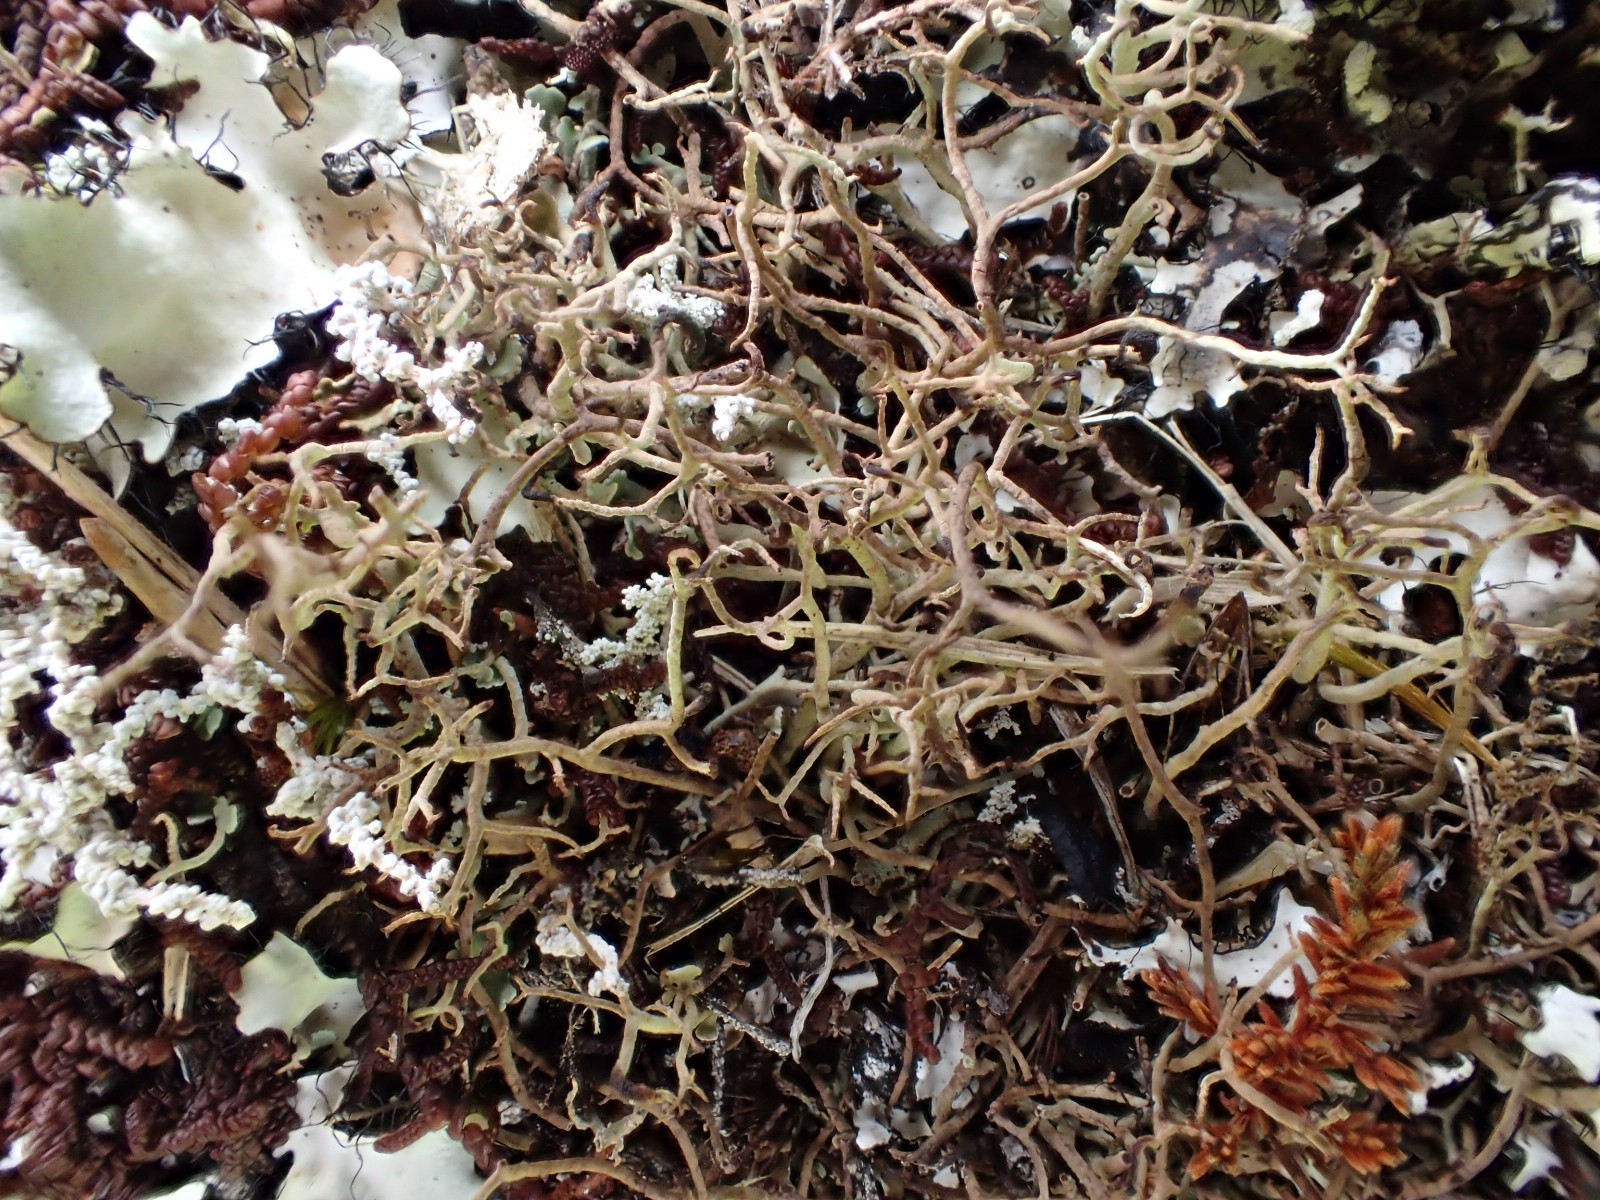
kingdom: Fungi
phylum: Ascomycota
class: Lecanoromycetes
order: Lecanorales
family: Cladoniaceae
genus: Cladonia
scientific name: Cladonia furcata
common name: kløftet bægerlav
